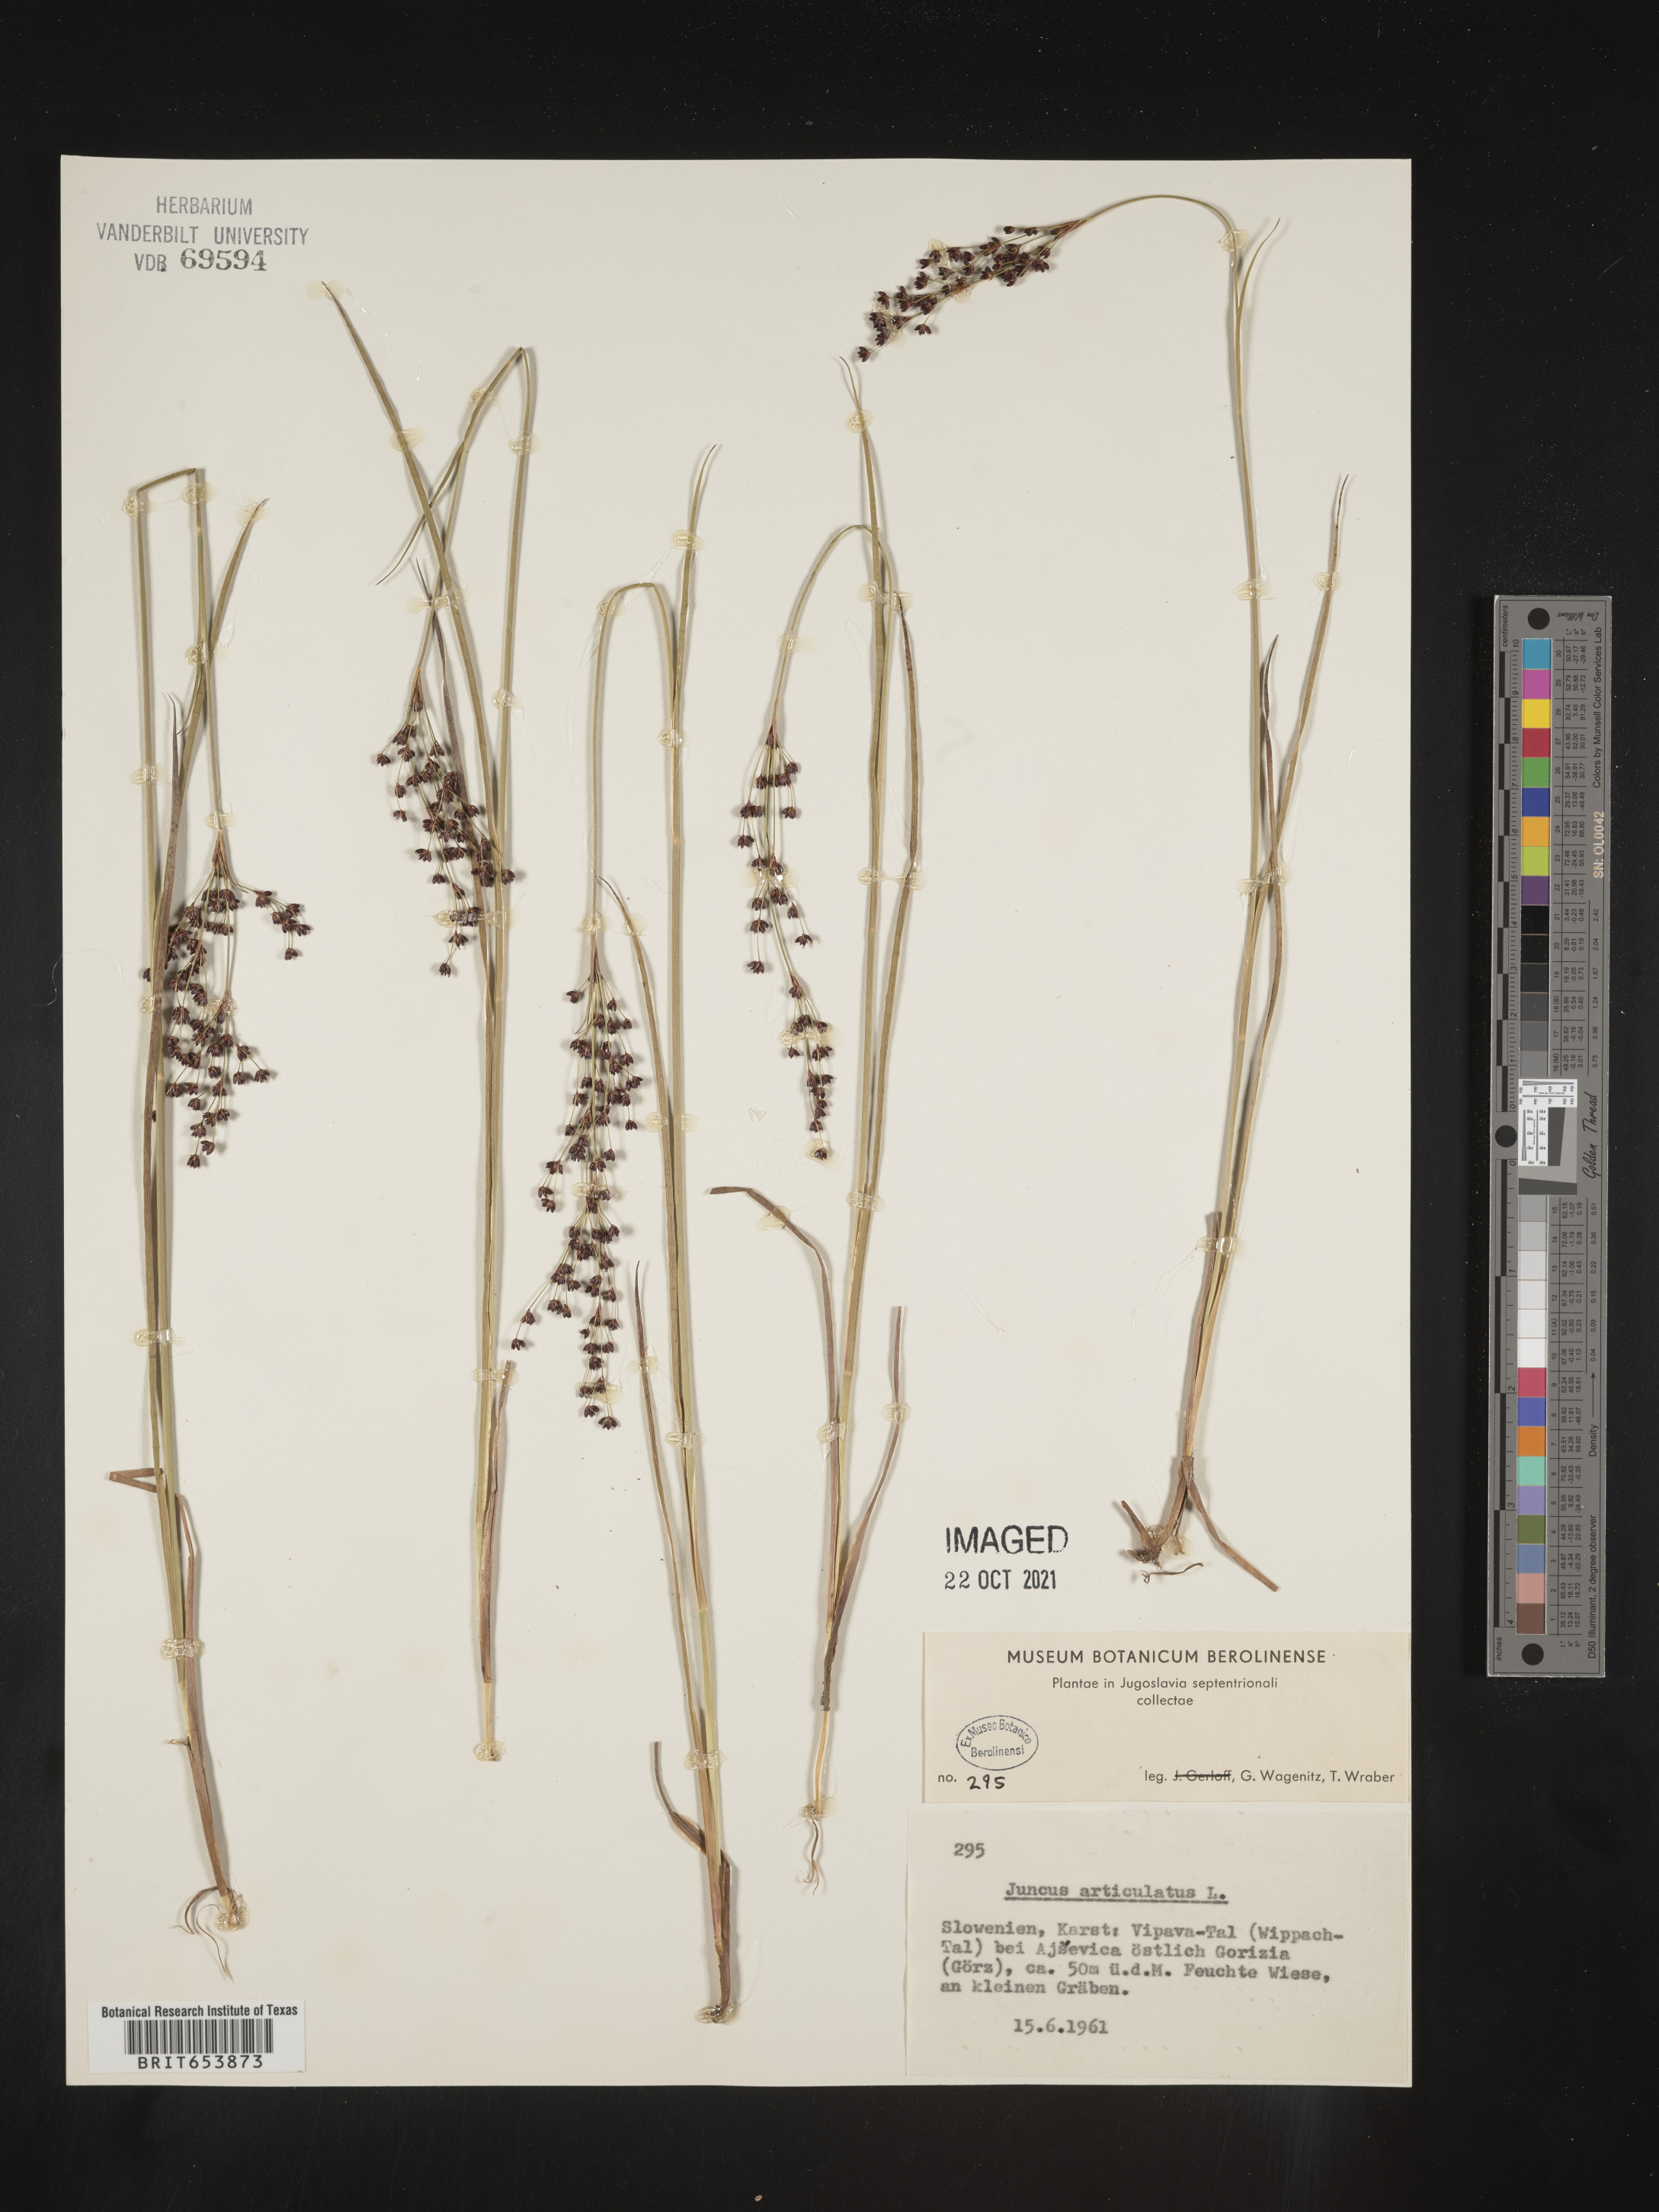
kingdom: Plantae
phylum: Tracheophyta
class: Liliopsida
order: Poales
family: Juncaceae
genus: Juncus
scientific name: Juncus articulatus
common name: Jointed rush
